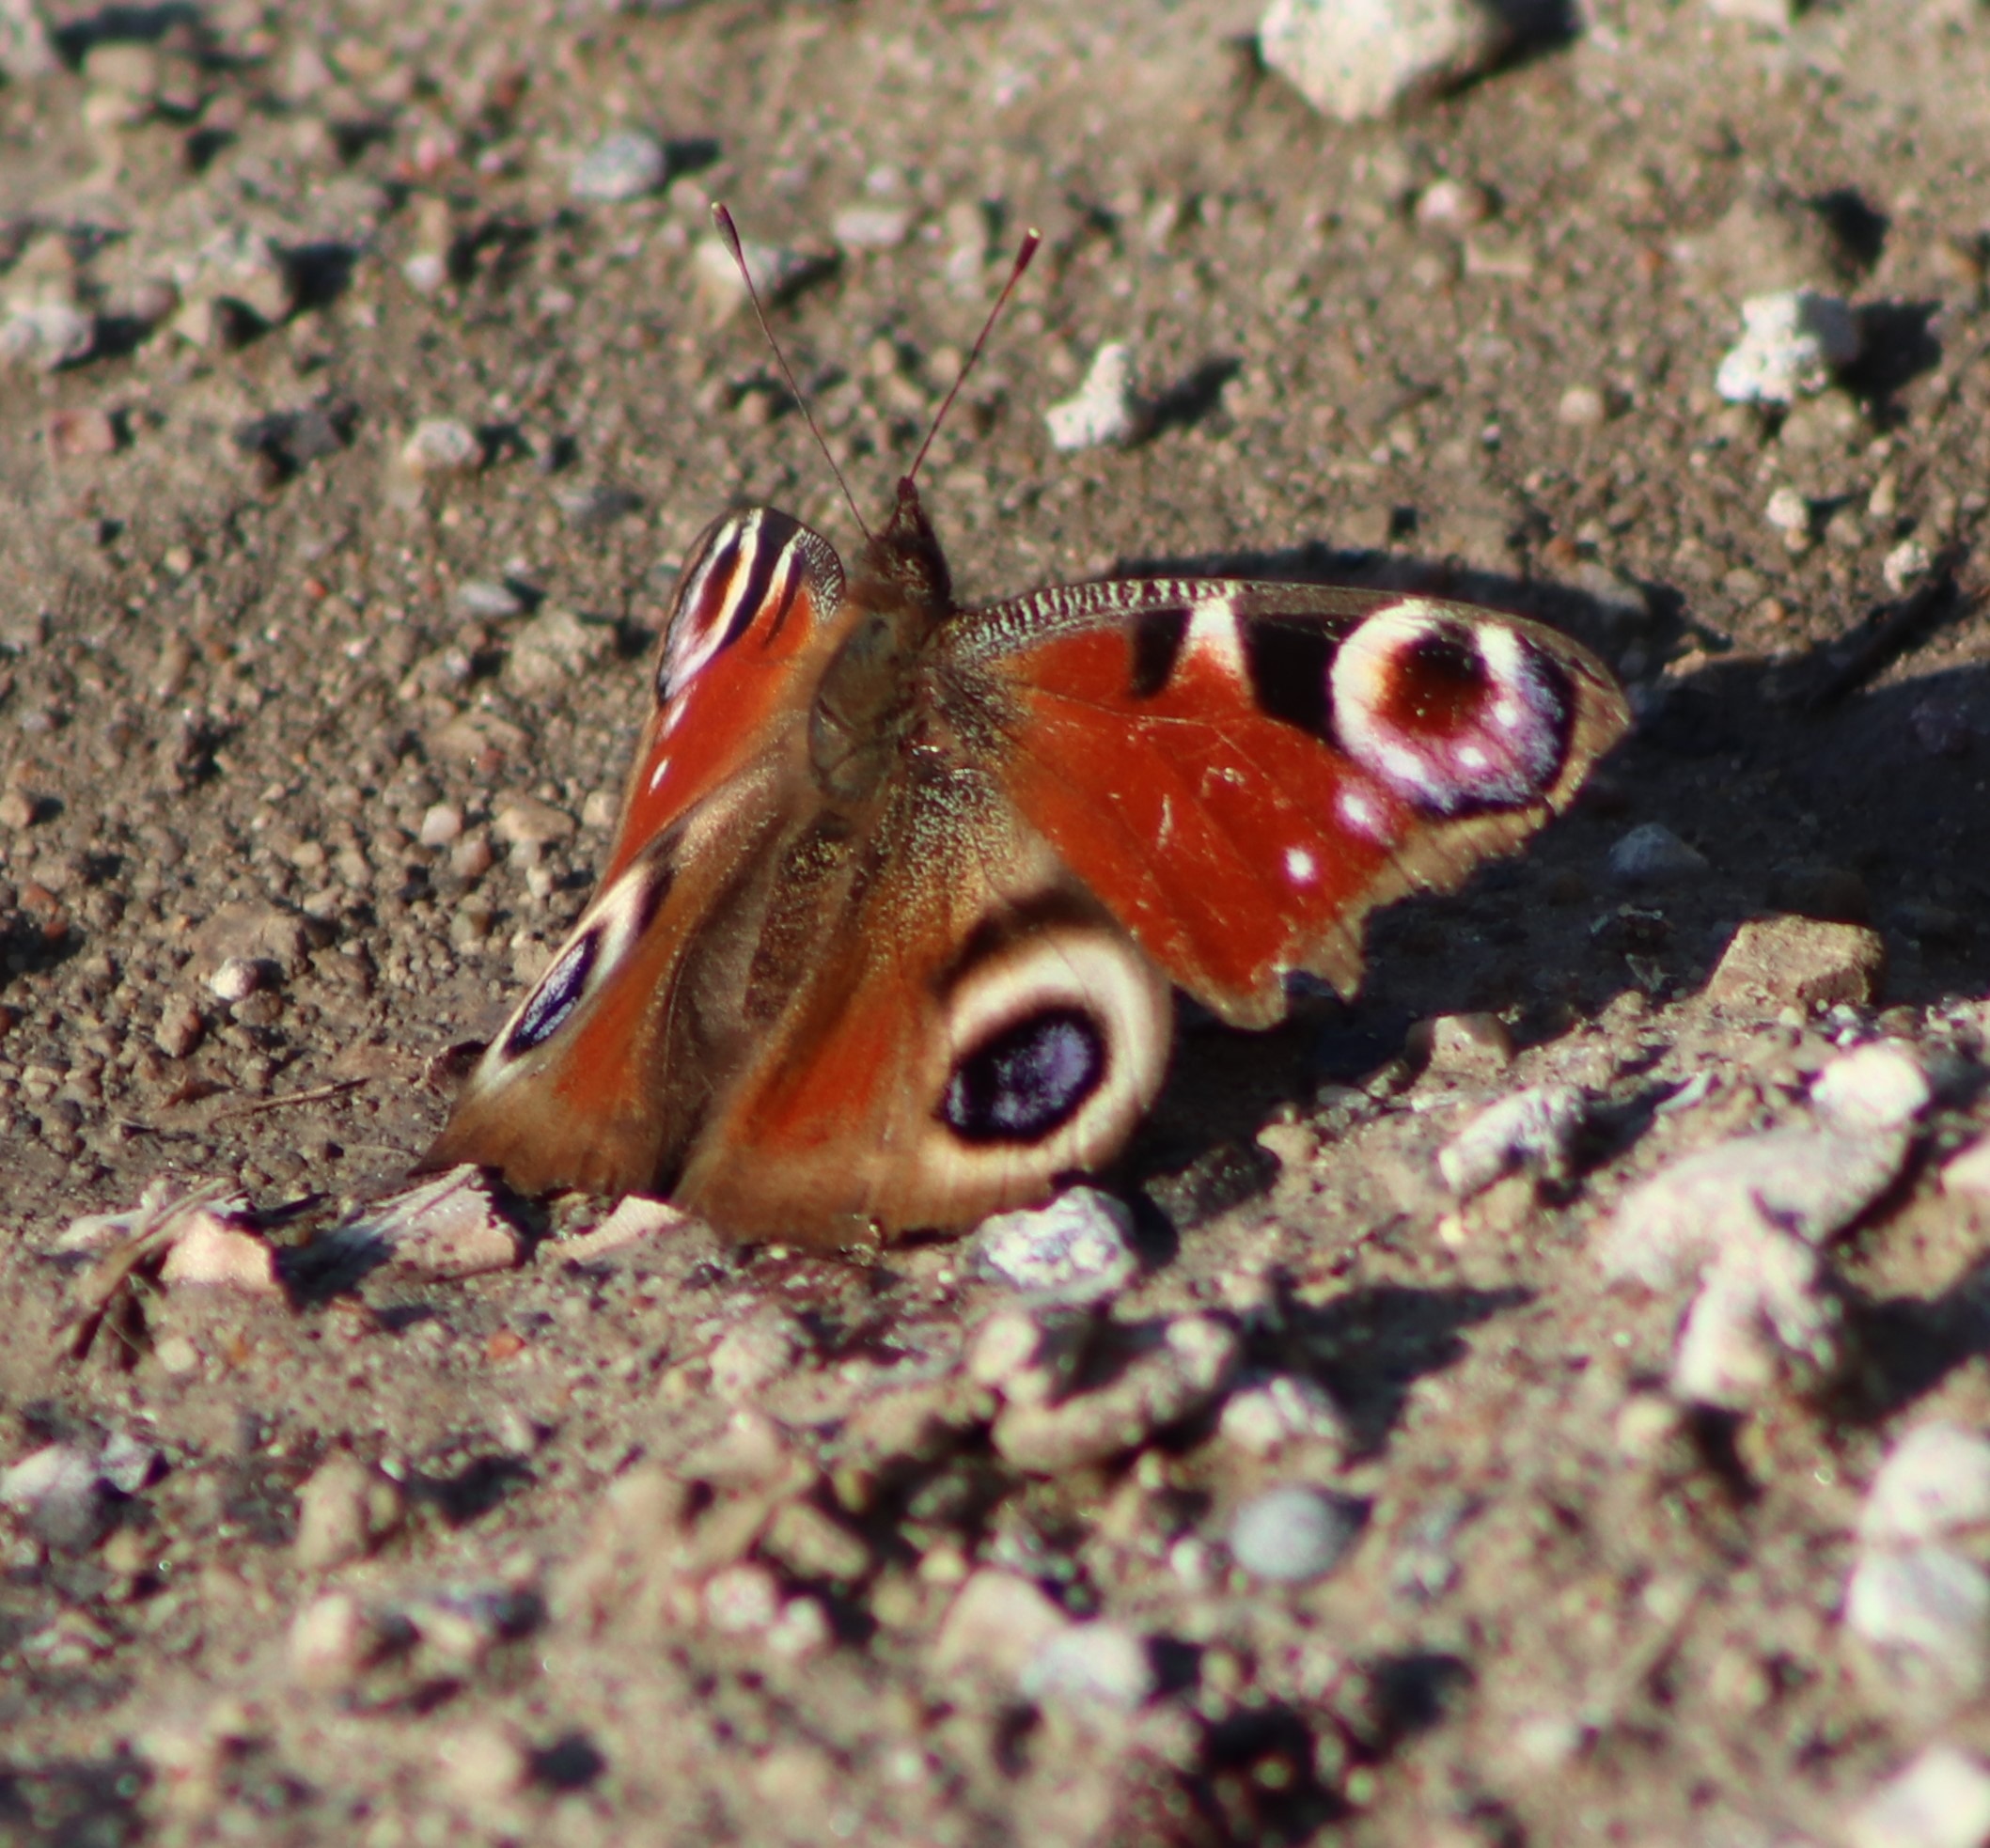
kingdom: Animalia
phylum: Arthropoda
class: Insecta
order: Lepidoptera
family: Nymphalidae
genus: Aglais
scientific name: Aglais io
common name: Dagpåfugleøje
